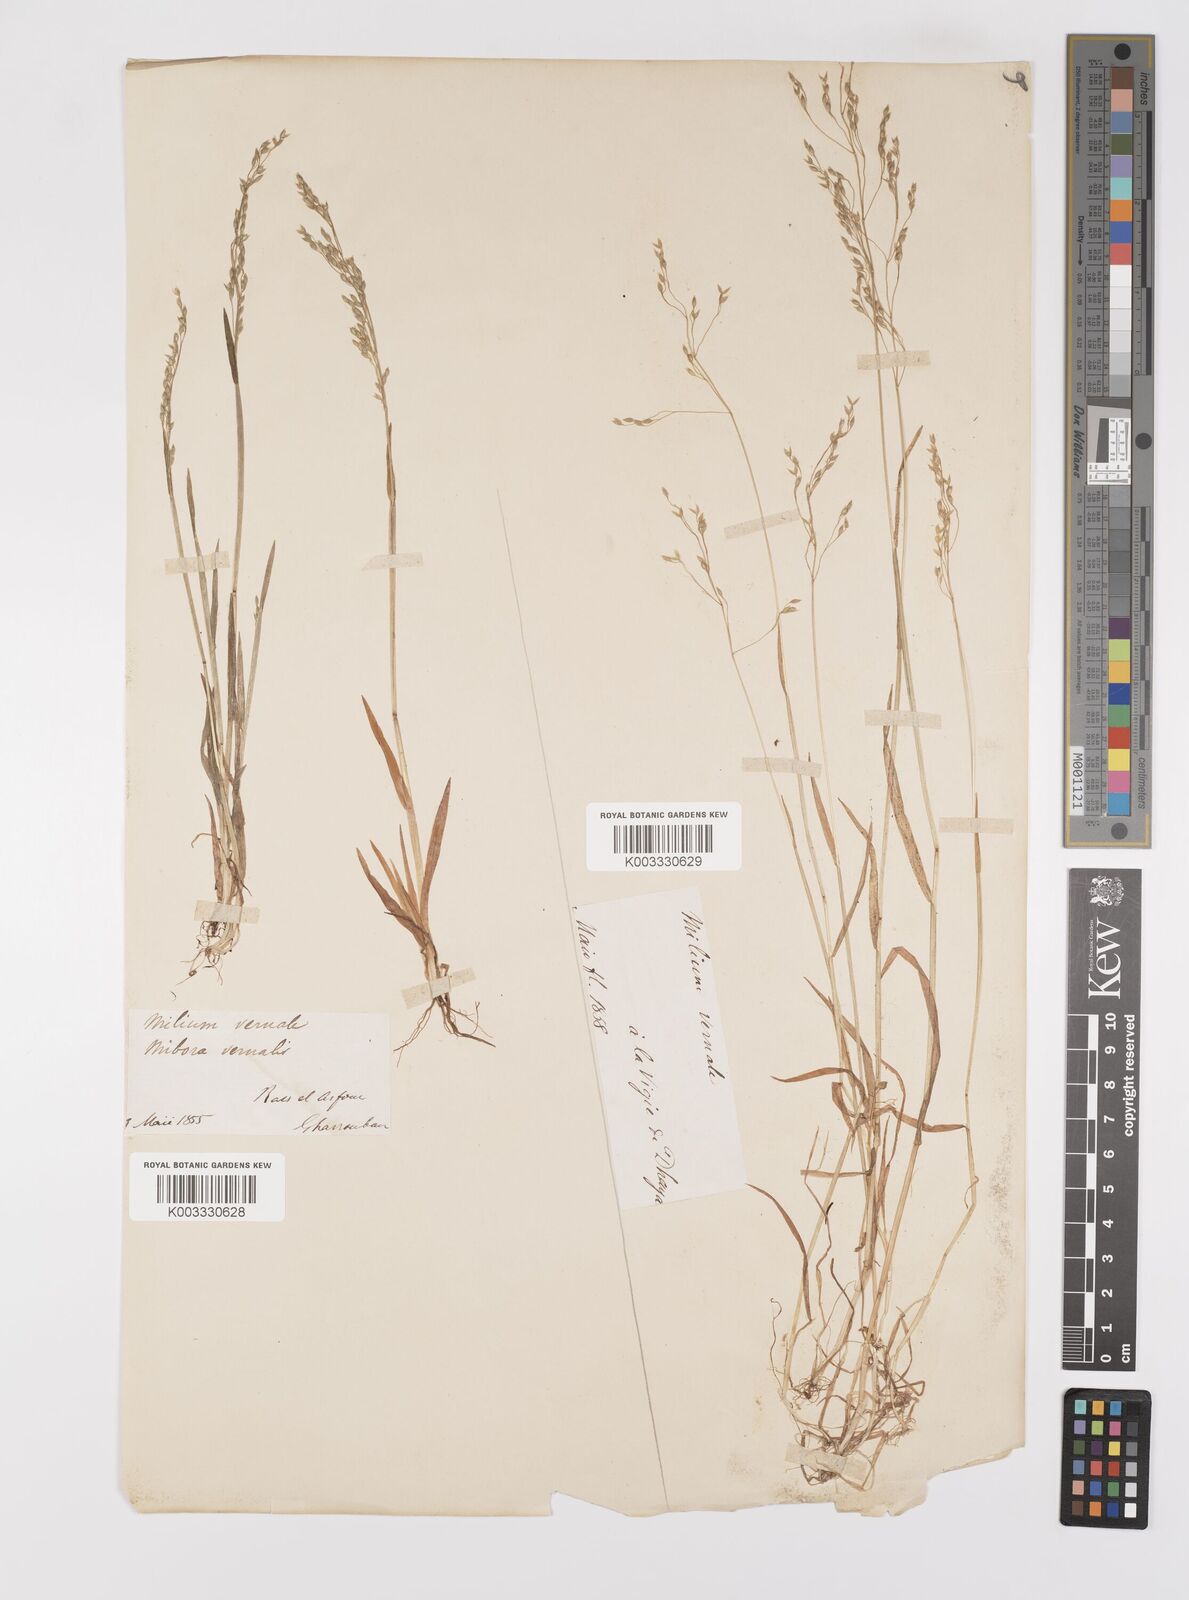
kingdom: Plantae
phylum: Tracheophyta
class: Liliopsida
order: Poales
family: Poaceae
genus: Milium
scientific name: Milium vernale
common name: Early millet
